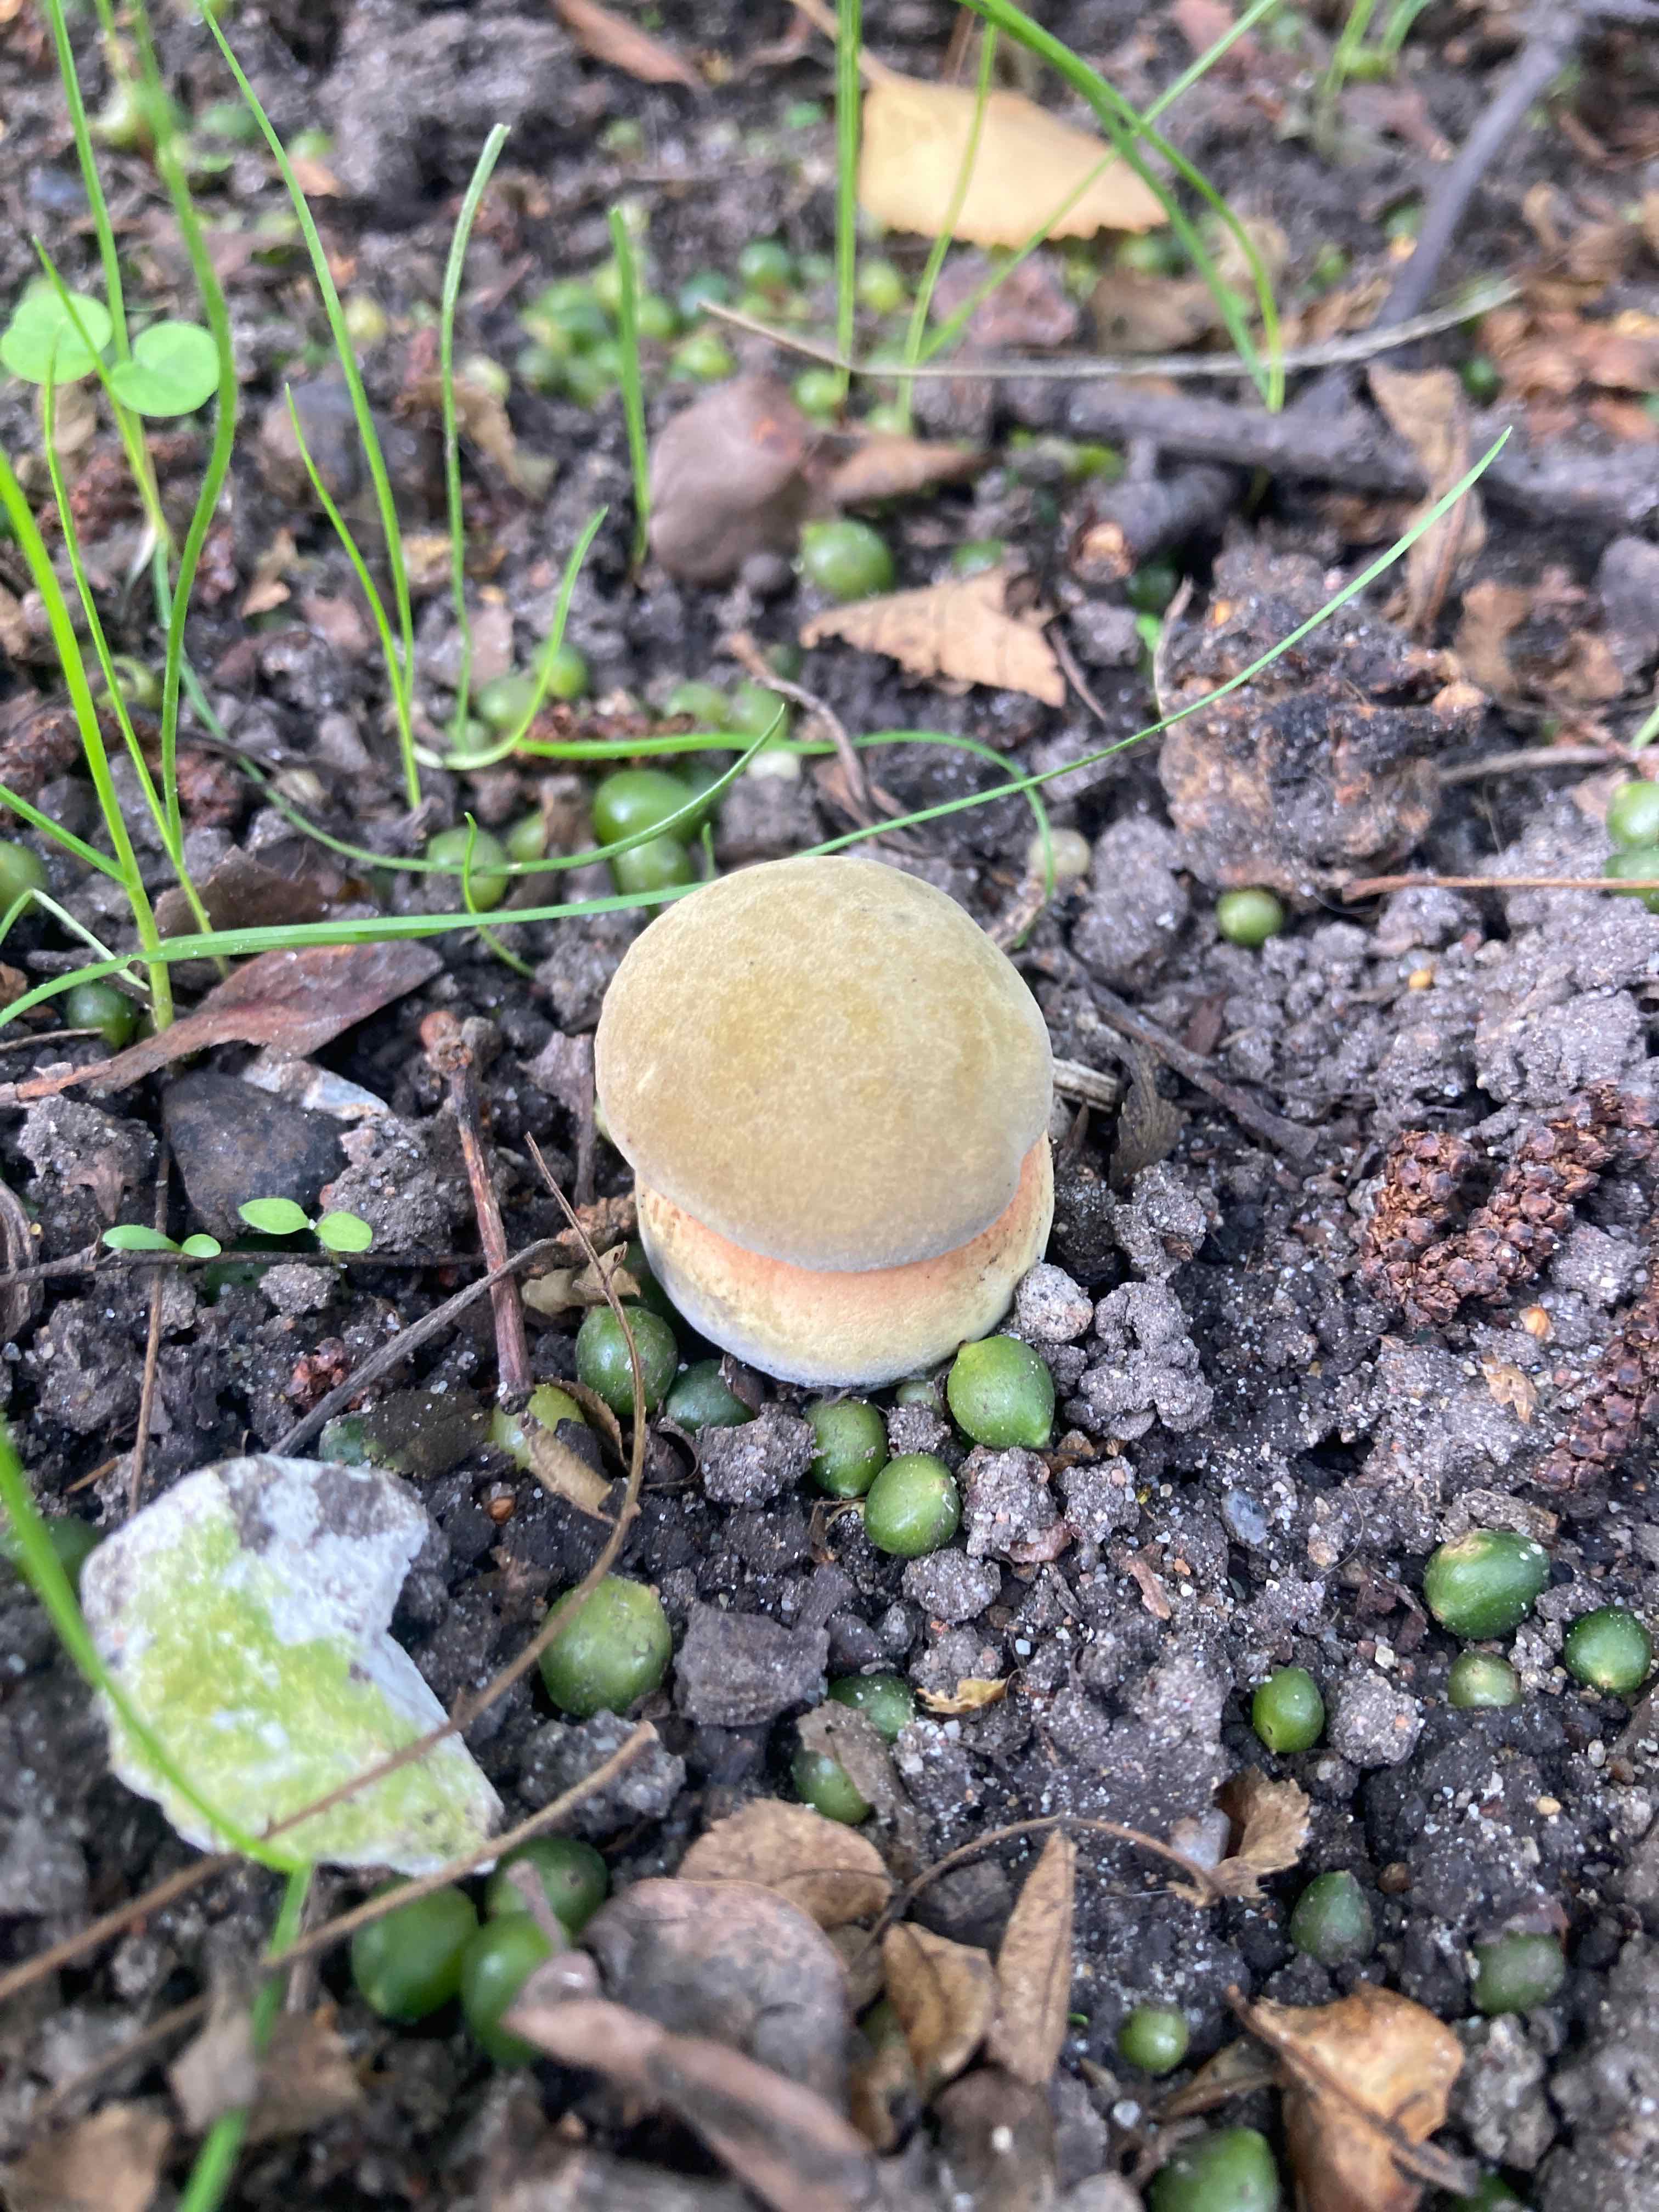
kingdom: Fungi
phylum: Basidiomycota
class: Agaricomycetes
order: Boletales
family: Boletaceae
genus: Suillellus
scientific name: Suillellus luridus
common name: netstokket indigorørhat
